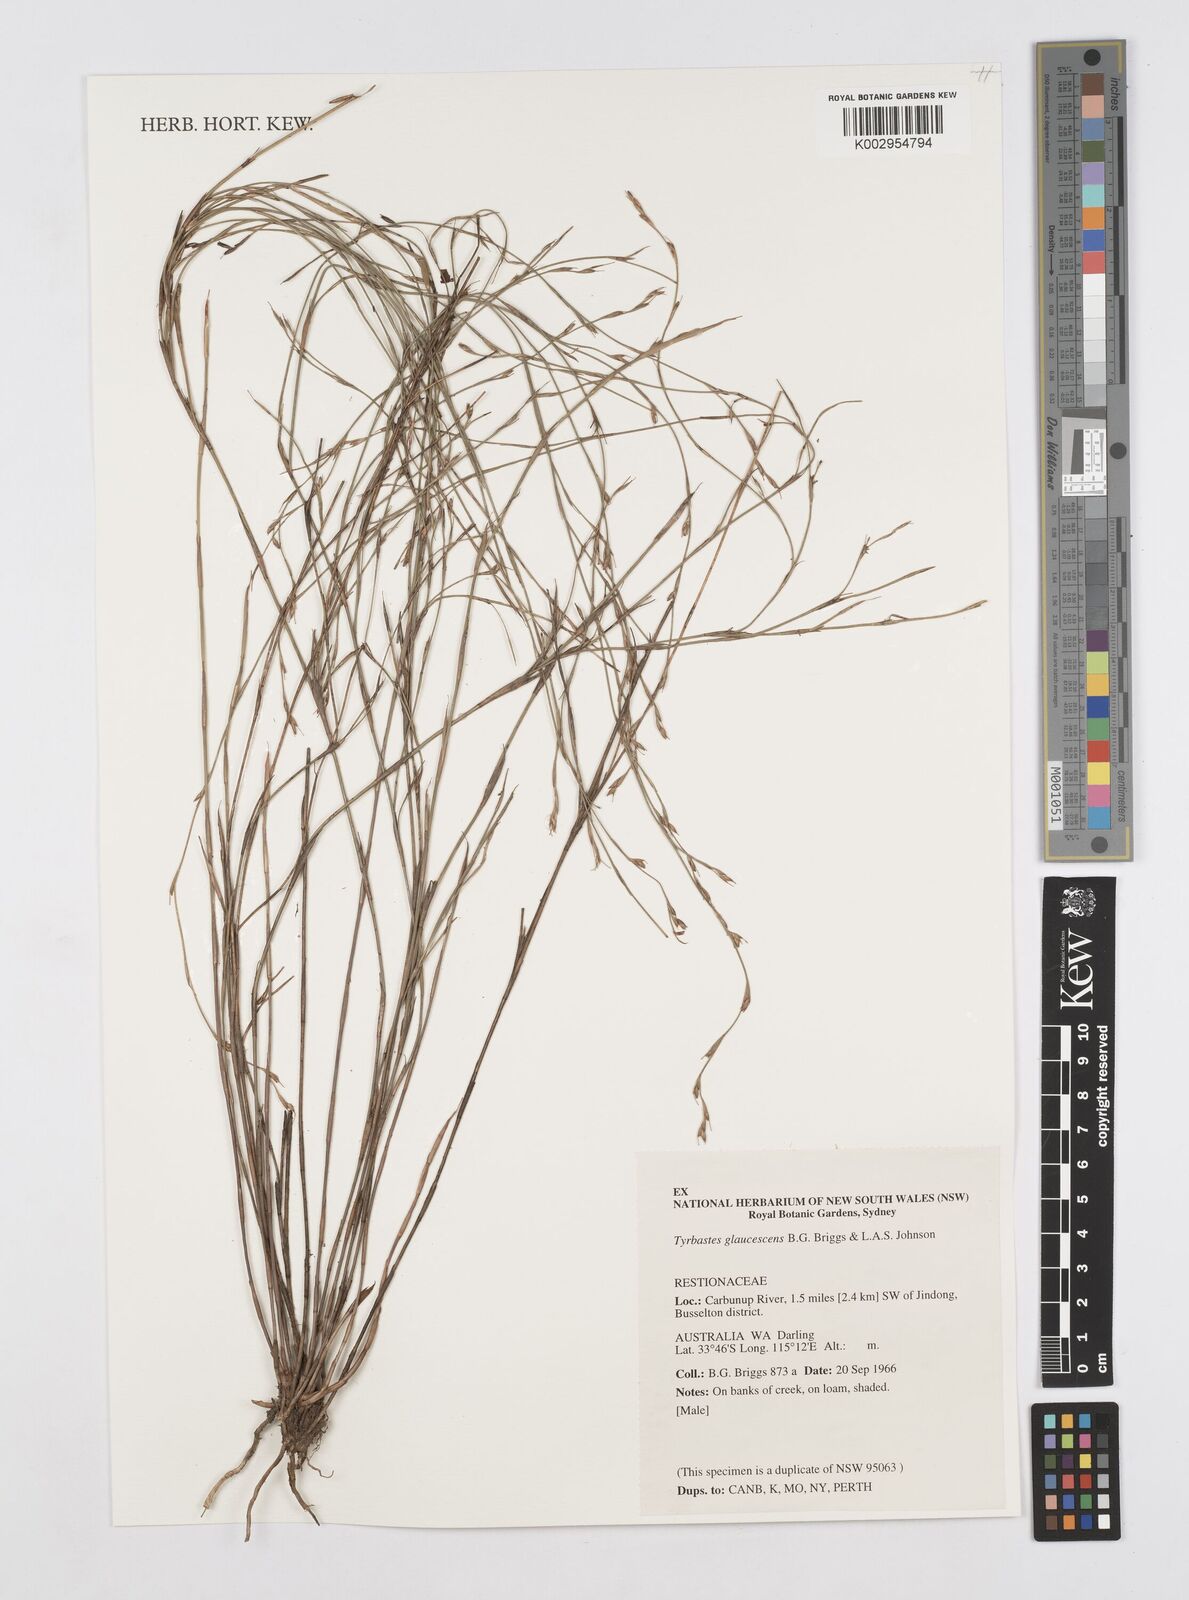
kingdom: Plantae
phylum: Tracheophyta
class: Liliopsida
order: Poales
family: Restionaceae
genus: Tyrbastes
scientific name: Tyrbastes glaucescens
